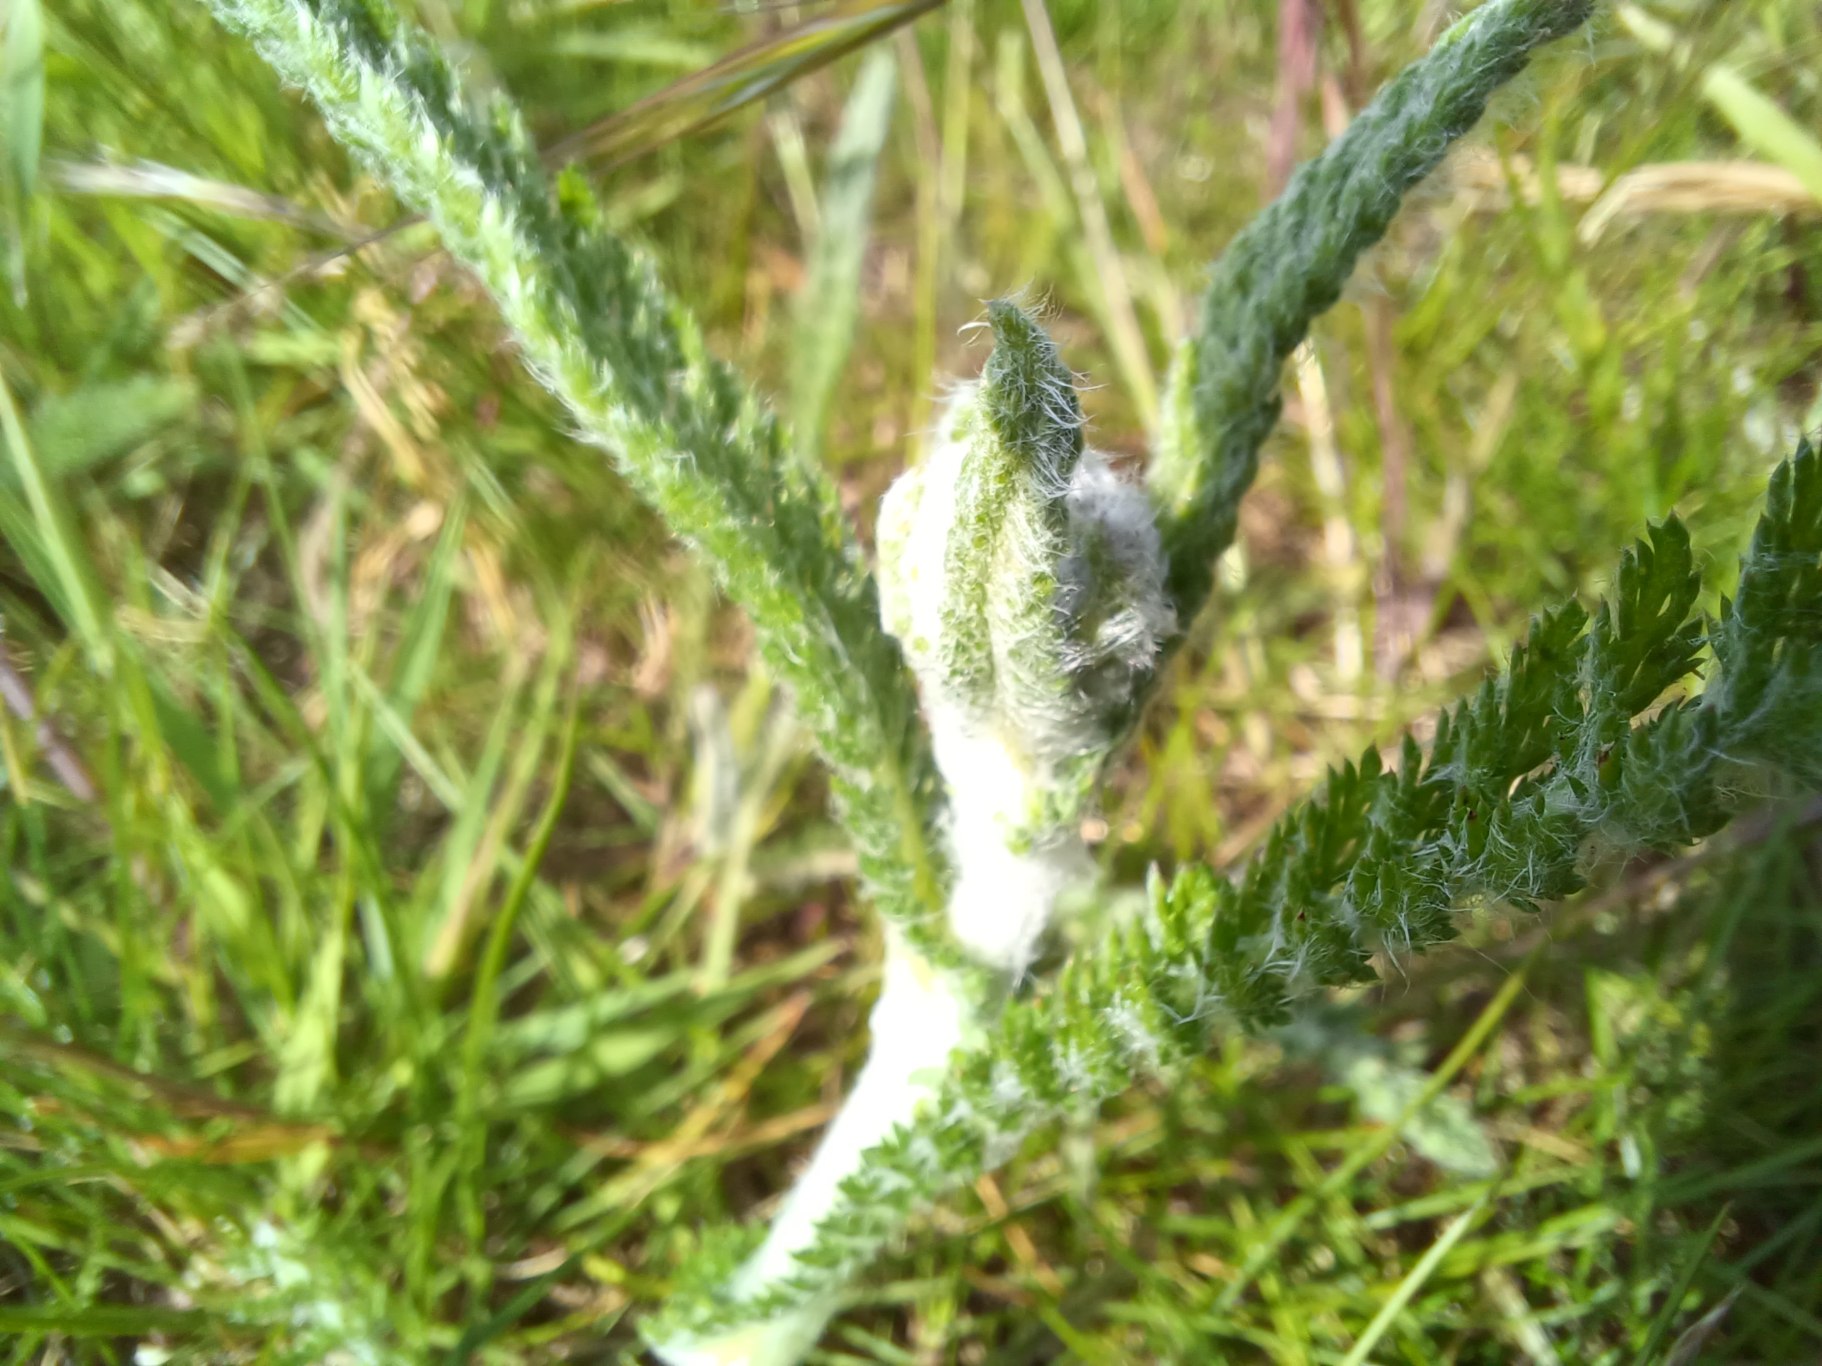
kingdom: Plantae
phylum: Tracheophyta
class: Magnoliopsida
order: Asterales
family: Asteraceae
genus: Achillea
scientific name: Achillea millefolium
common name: Almindelig røllike
